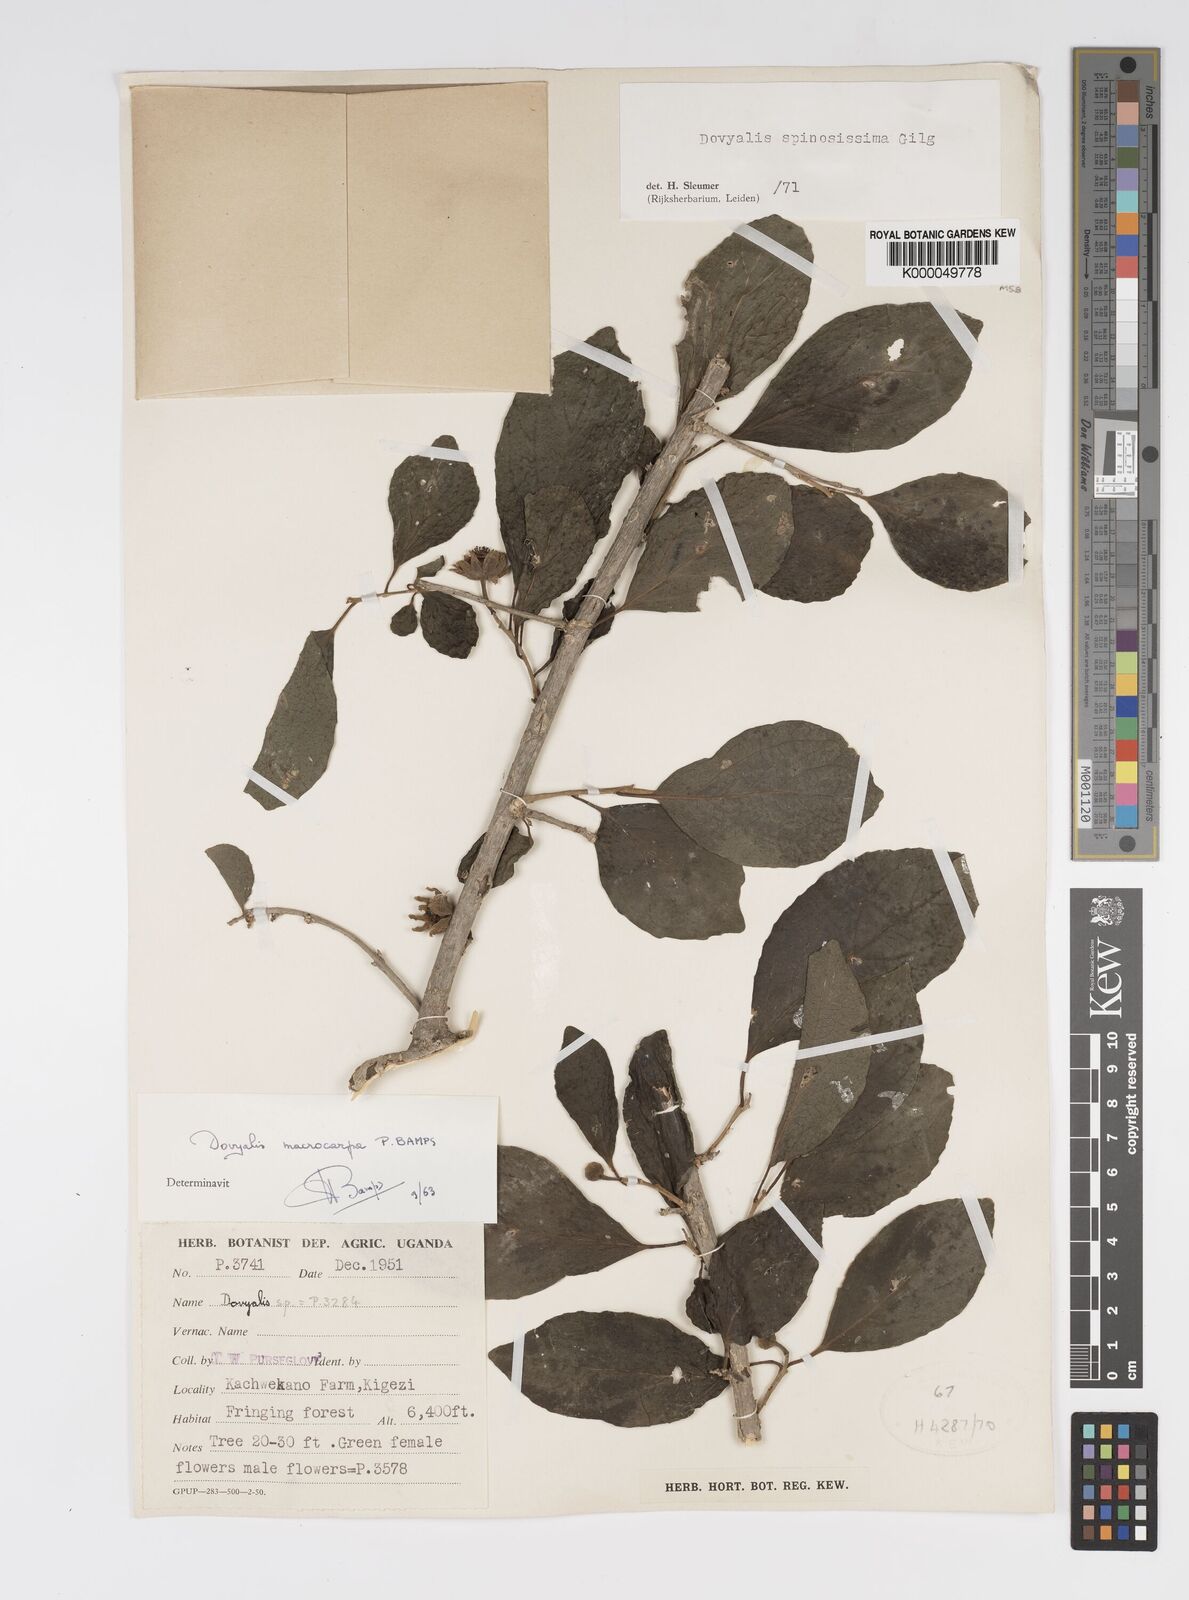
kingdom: Plantae
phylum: Tracheophyta
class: Magnoliopsida
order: Malpighiales
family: Salicaceae
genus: Dovyalis
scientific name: Dovyalis spinosissima
